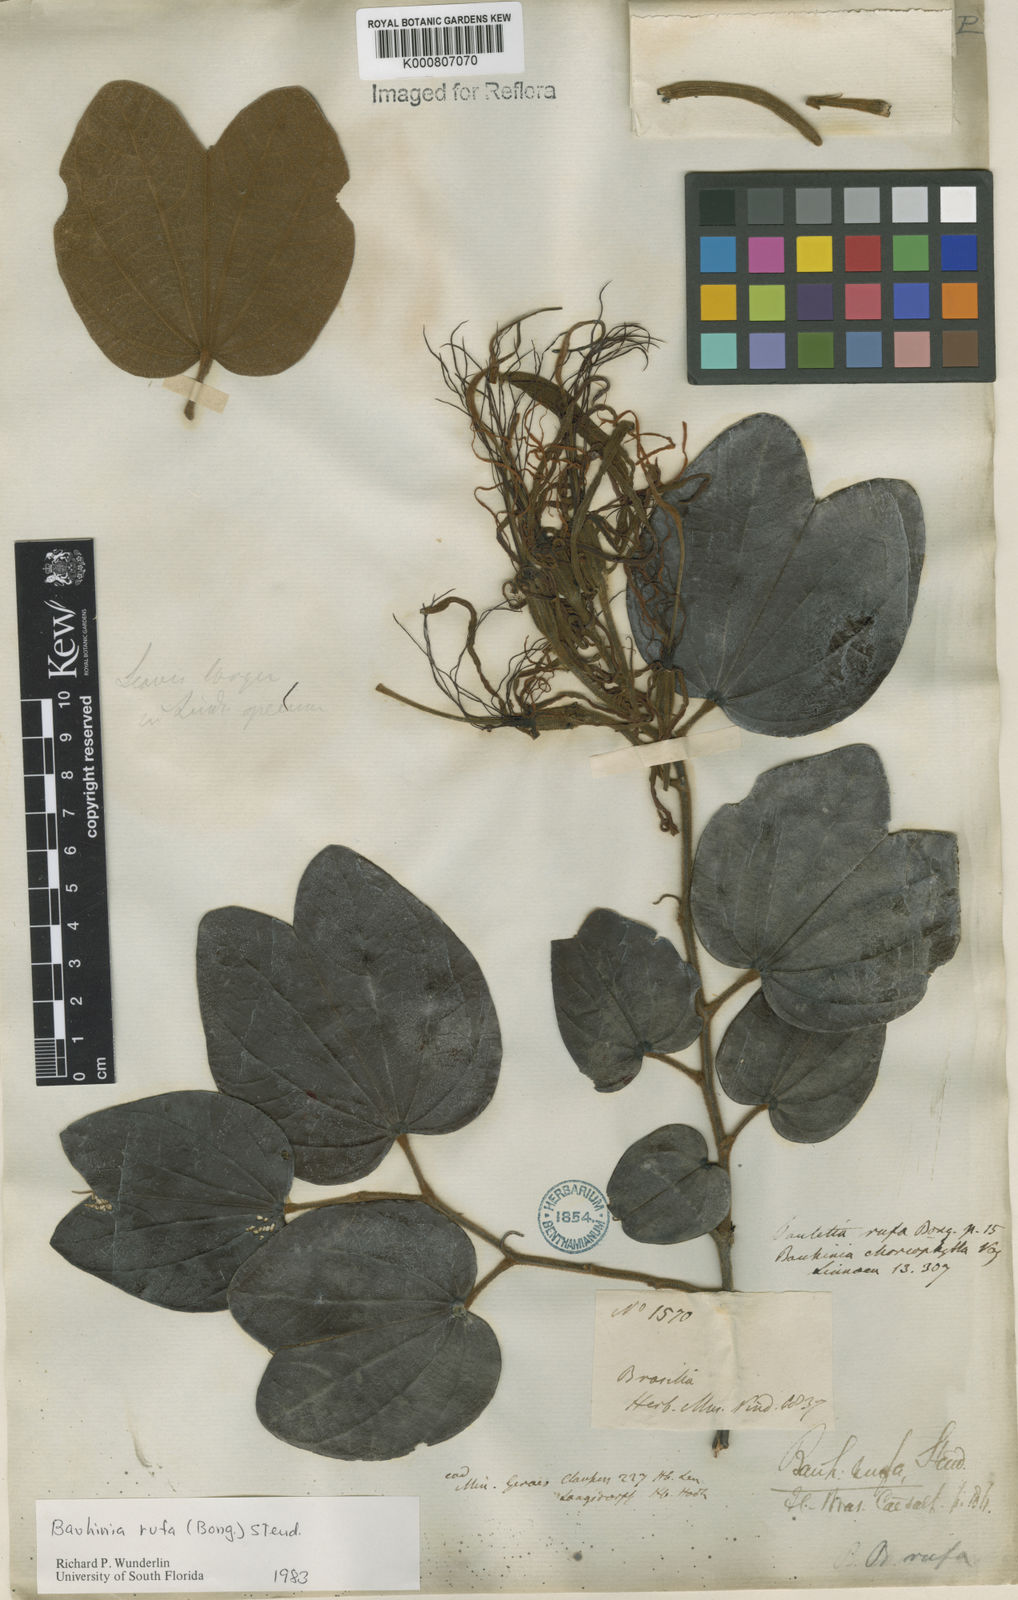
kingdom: Plantae
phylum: Tracheophyta
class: Magnoliopsida
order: Fabales
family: Fabaceae
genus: Bauhinia
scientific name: Bauhinia rufa
